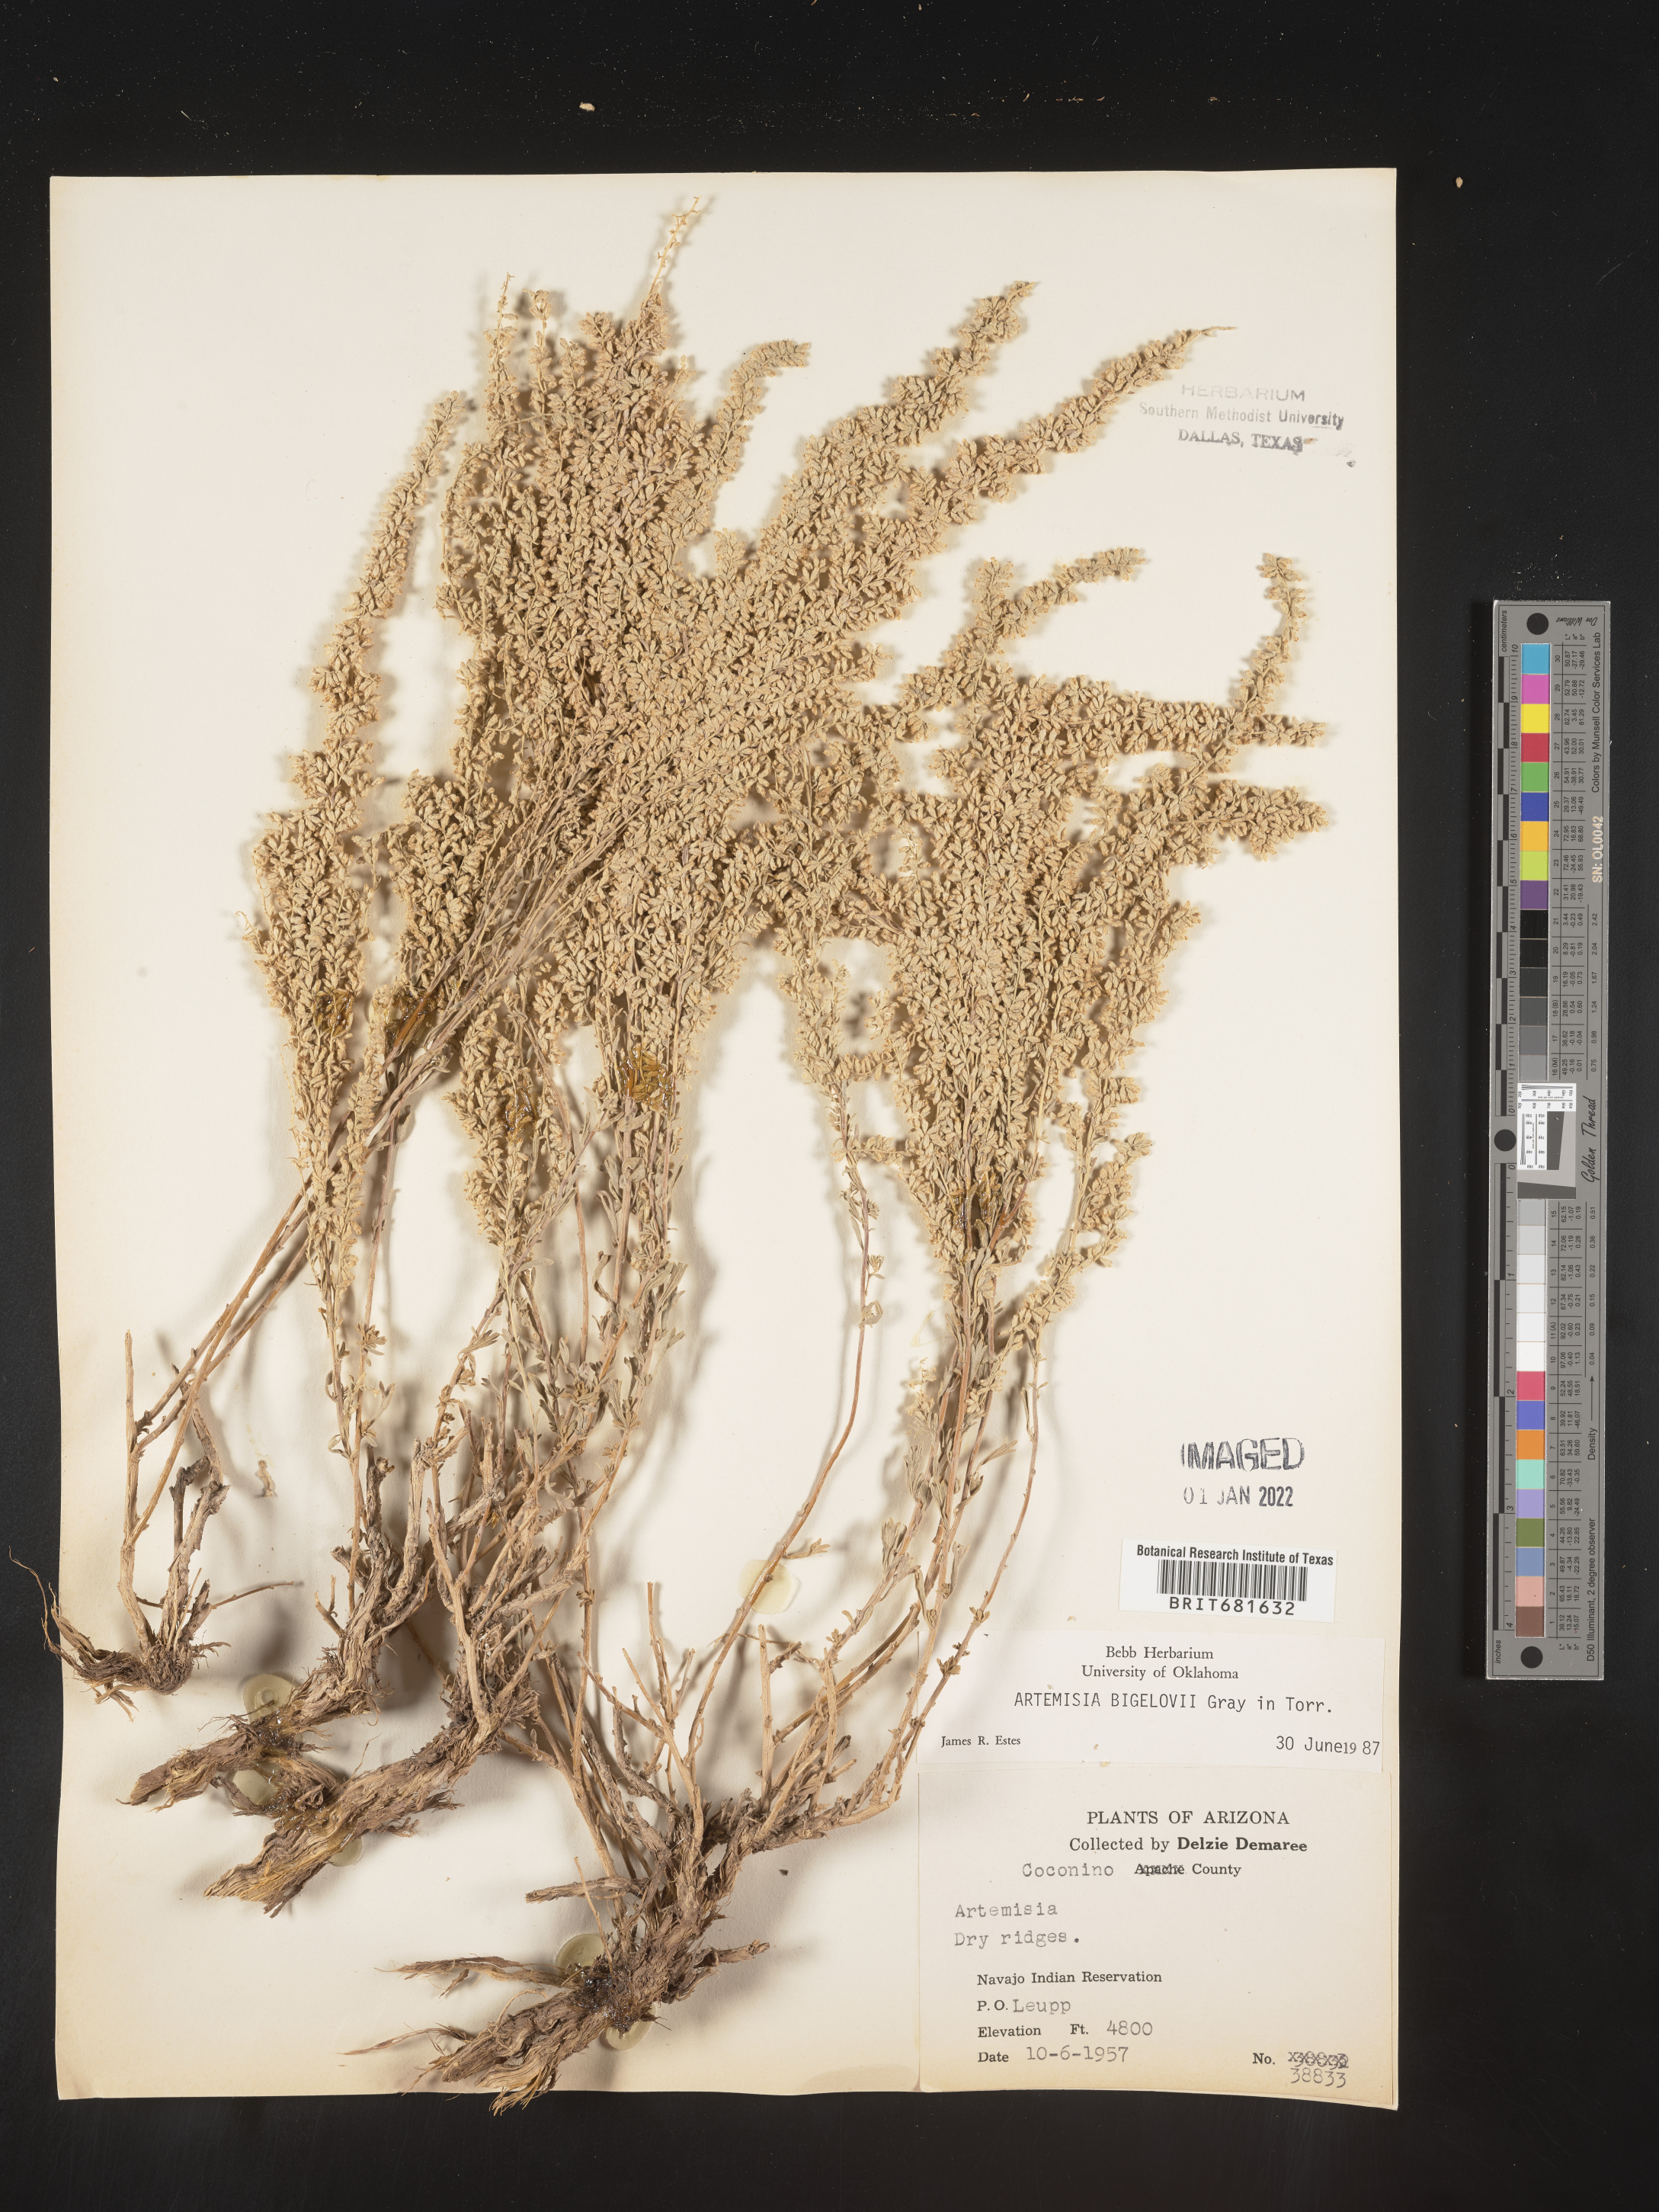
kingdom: Plantae
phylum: Tracheophyta
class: Magnoliopsida
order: Asterales
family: Asteraceae
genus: Artemisia
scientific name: Artemisia bigelovii
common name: Bigelow sagebrush
